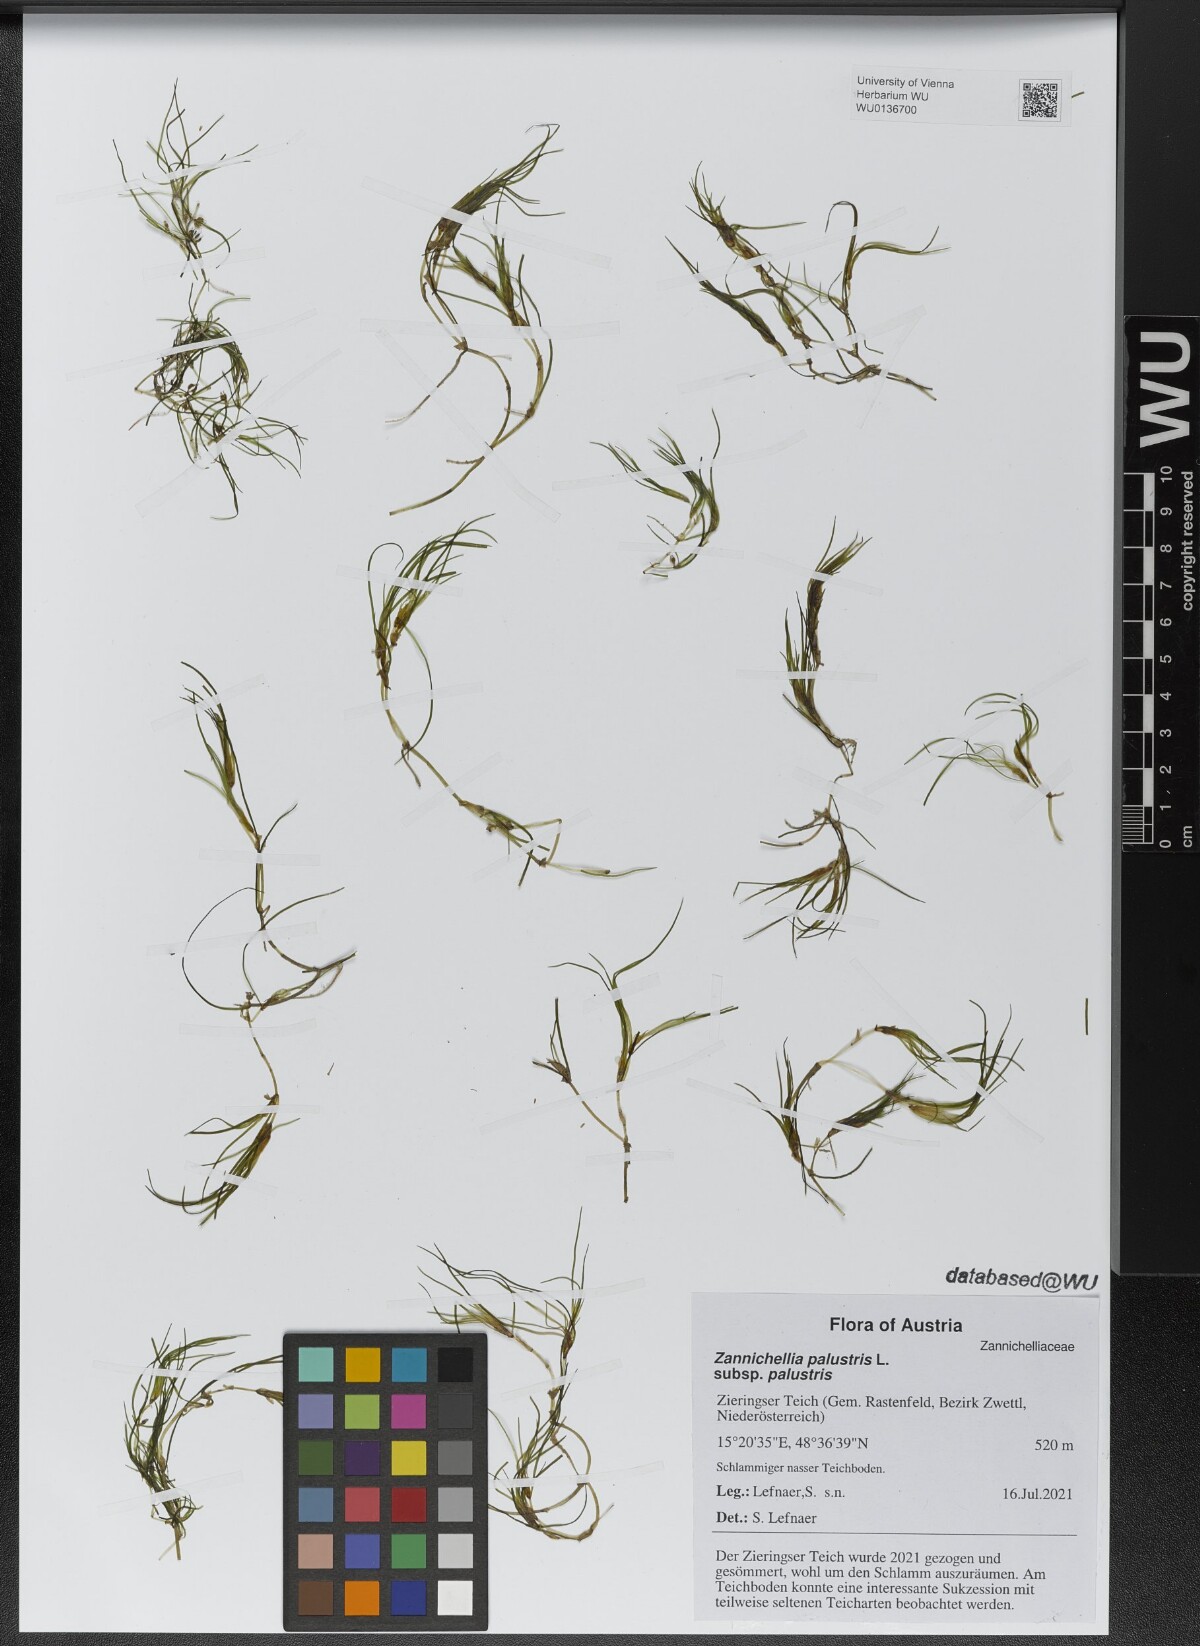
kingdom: Plantae
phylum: Tracheophyta
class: Liliopsida
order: Alismatales
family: Potamogetonaceae
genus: Zannichellia
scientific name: Zannichellia palustris
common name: Horned pondweed
